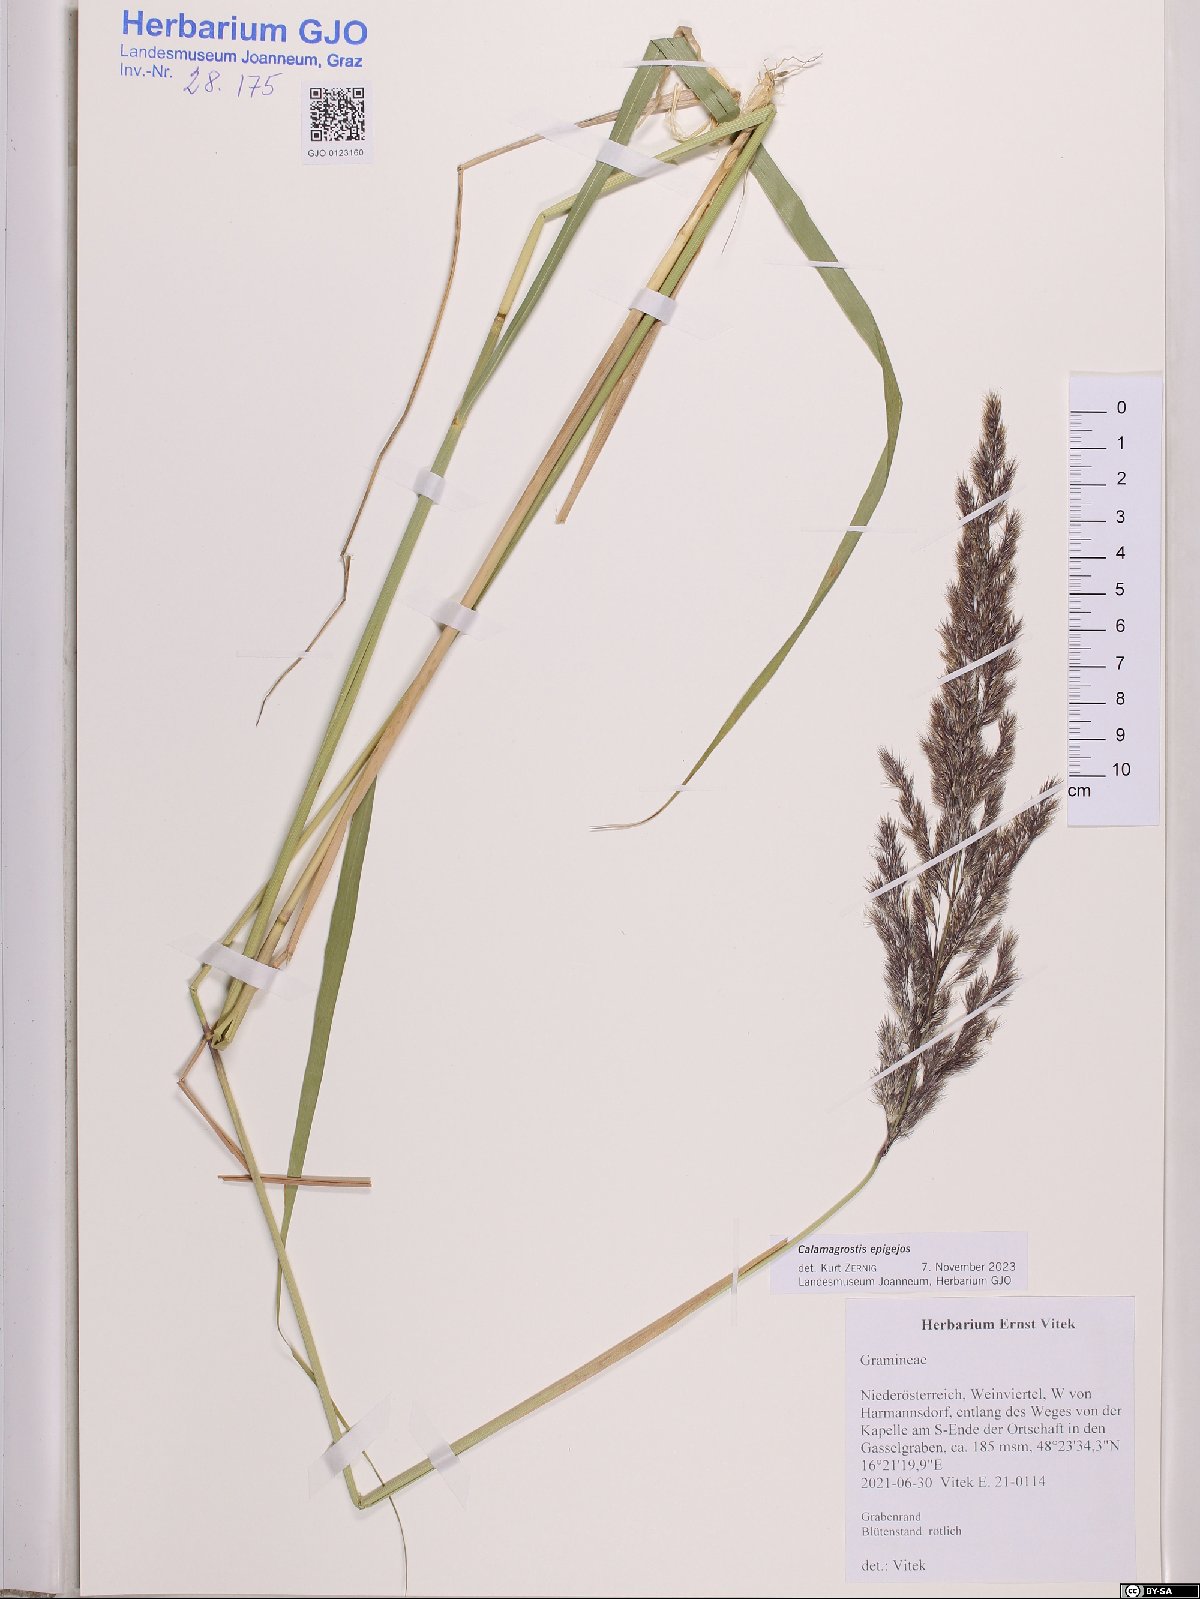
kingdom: Plantae
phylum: Tracheophyta
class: Liliopsida
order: Poales
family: Poaceae
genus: Calamagrostis
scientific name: Calamagrostis epigejos
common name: Wood small-reed
